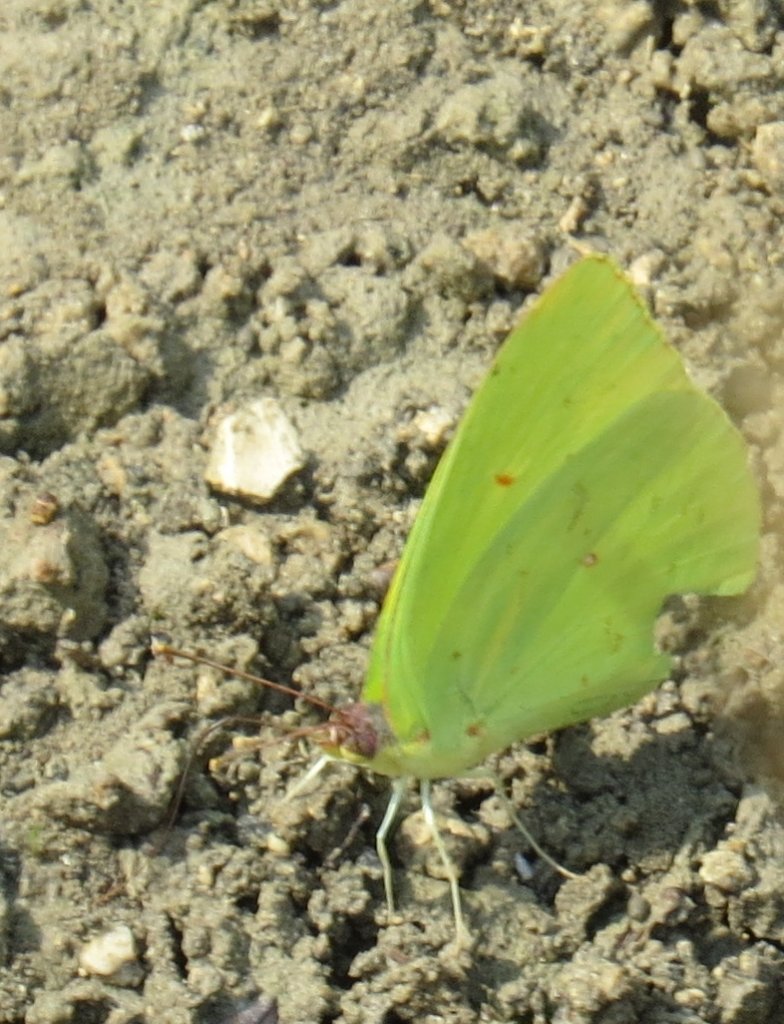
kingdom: Animalia
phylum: Arthropoda
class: Insecta
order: Lepidoptera
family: Pieridae
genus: Phoebis
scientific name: Phoebis sennae
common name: Cloudless Sulphur
